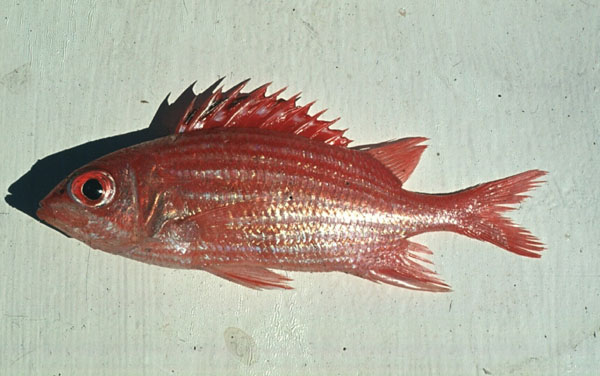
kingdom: Animalia
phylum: Chordata
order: Beryciformes
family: Holocentridae
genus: Sargocentron
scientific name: Sargocentron diadema
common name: Crown squirrelfish
